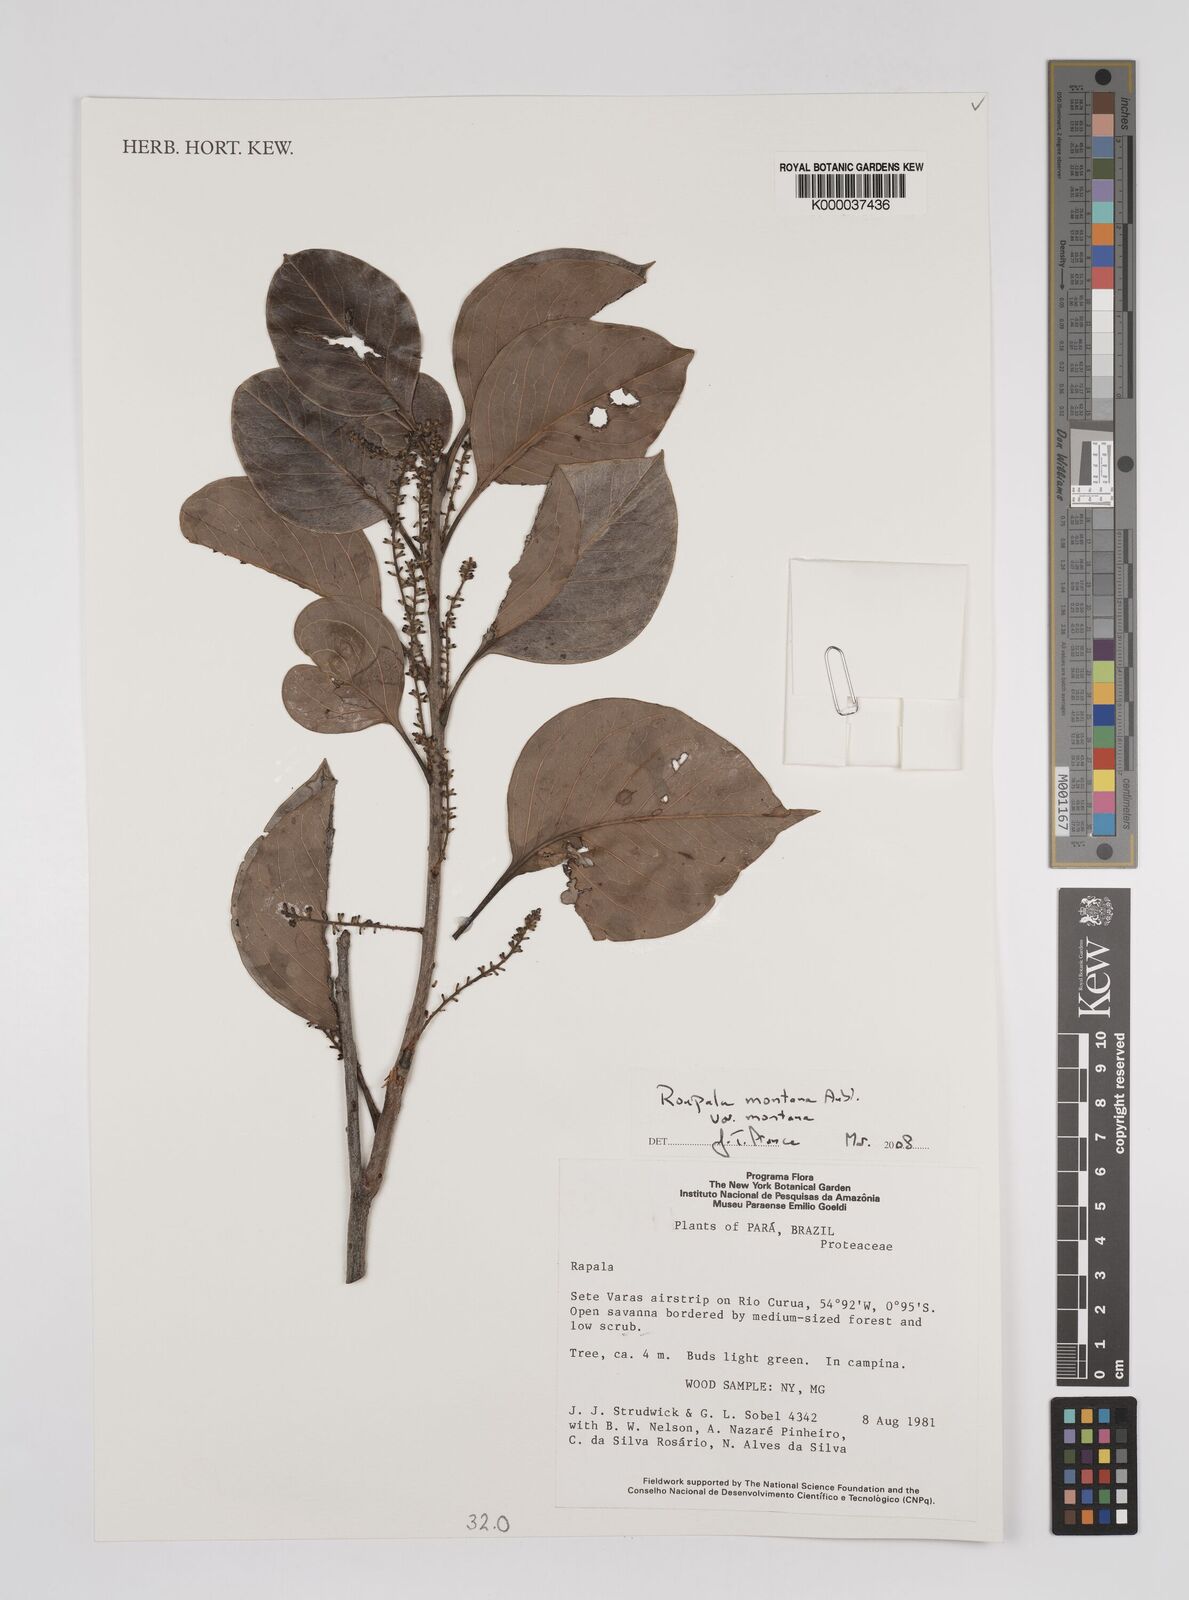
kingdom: Plantae
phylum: Tracheophyta
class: Magnoliopsida
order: Proteales
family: Proteaceae
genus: Roupala
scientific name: Roupala montana
